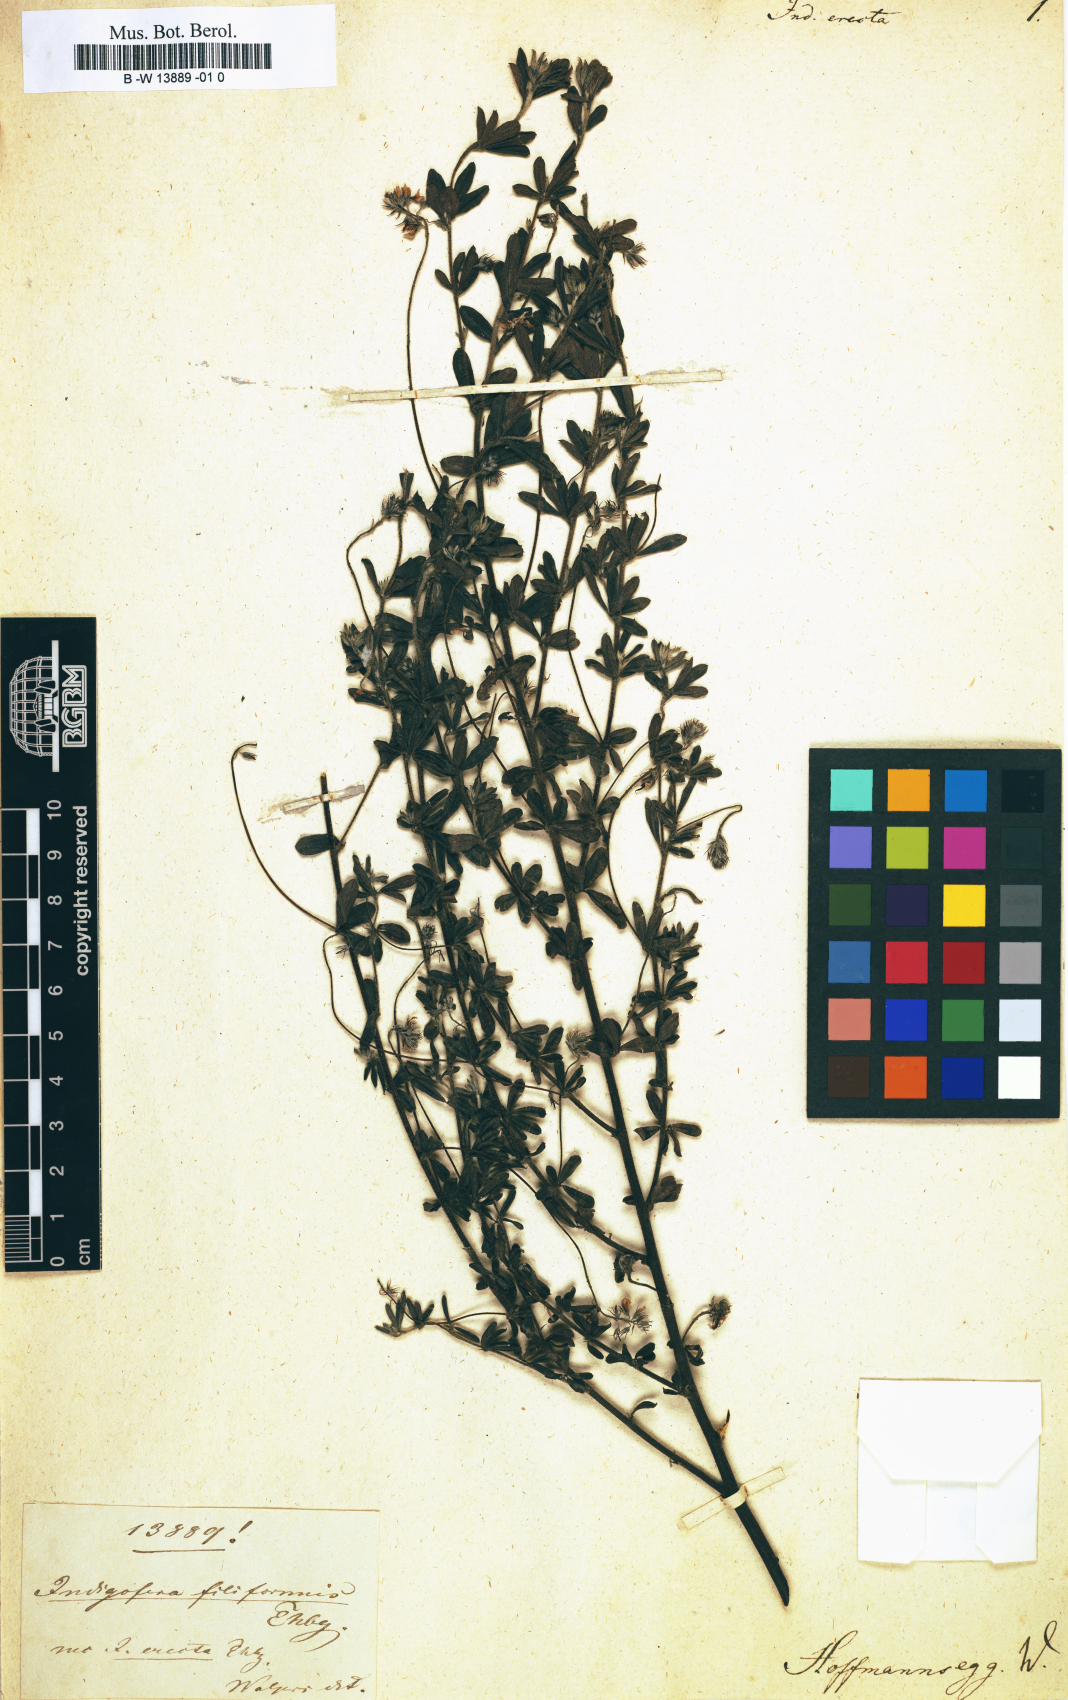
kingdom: Plantae
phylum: Tracheophyta
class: Magnoliopsida
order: Fabales
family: Fabaceae
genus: Indigofera
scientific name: Indigofera gracilis
